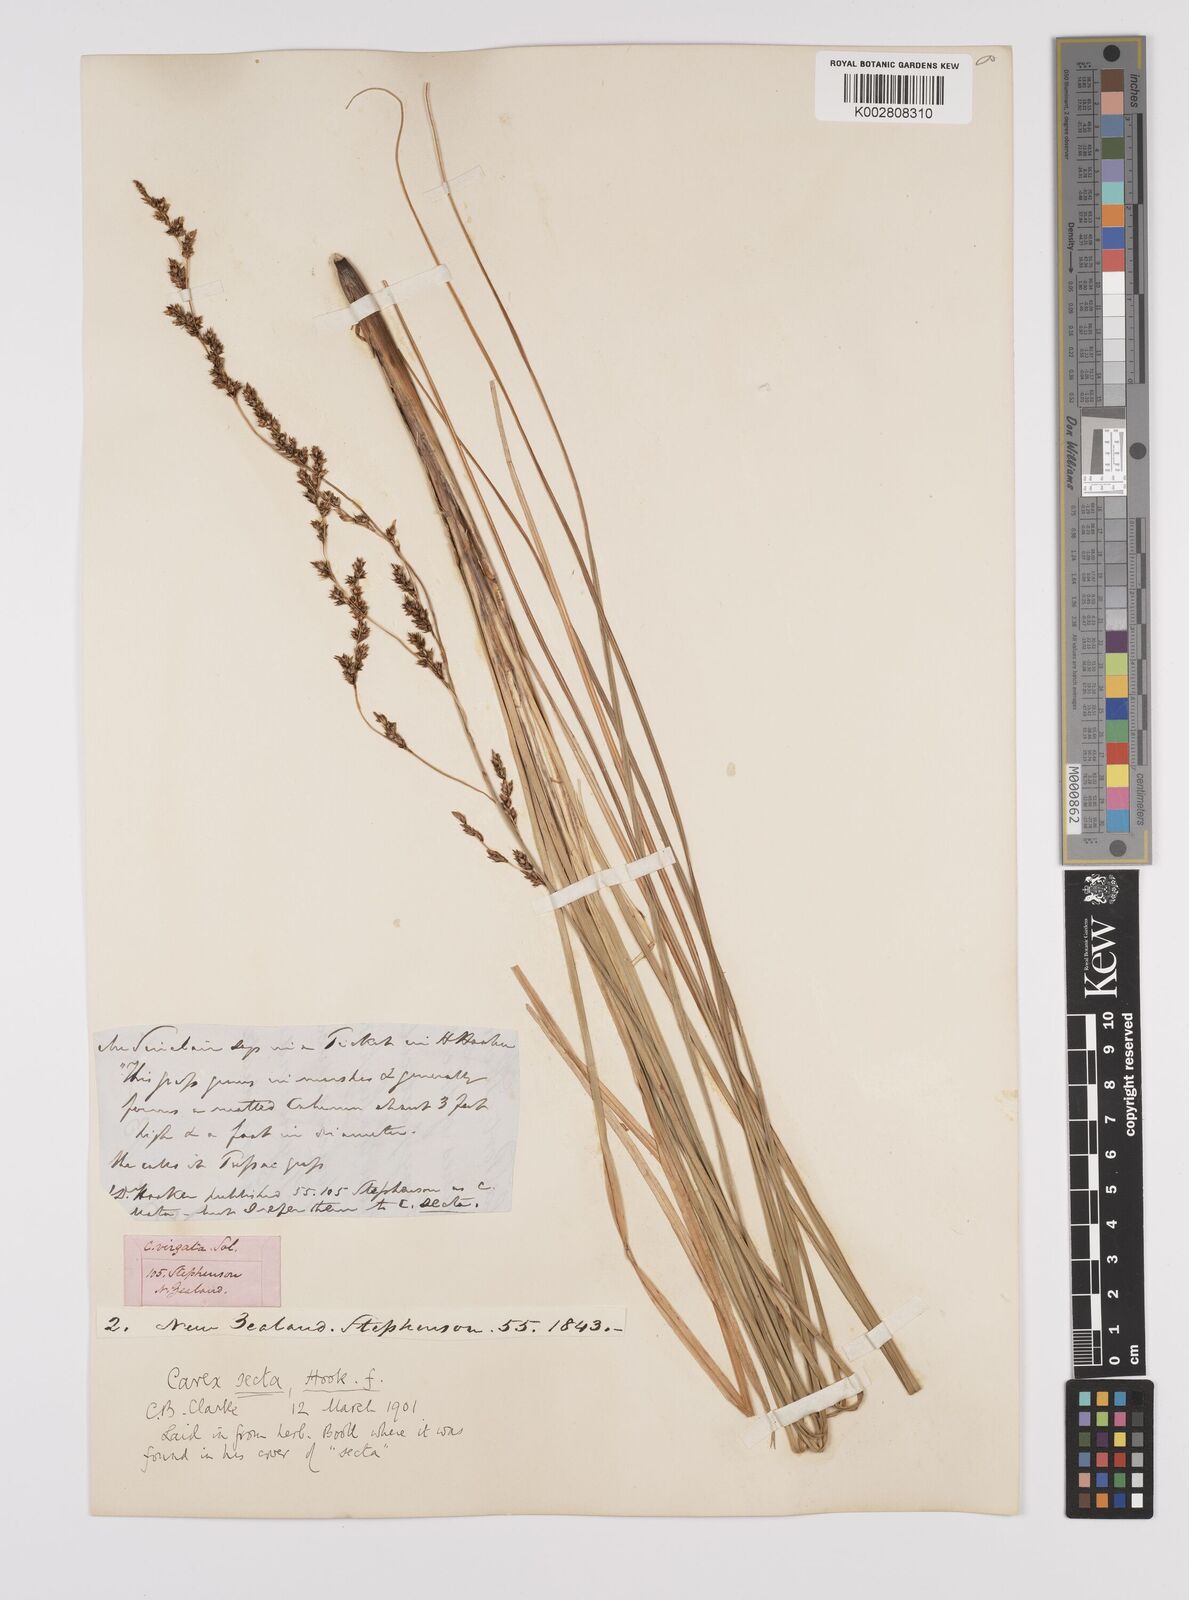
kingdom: Plantae
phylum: Tracheophyta
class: Liliopsida
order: Poales
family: Cyperaceae
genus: Carex
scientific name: Carex appressa
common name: Tussock sedge
